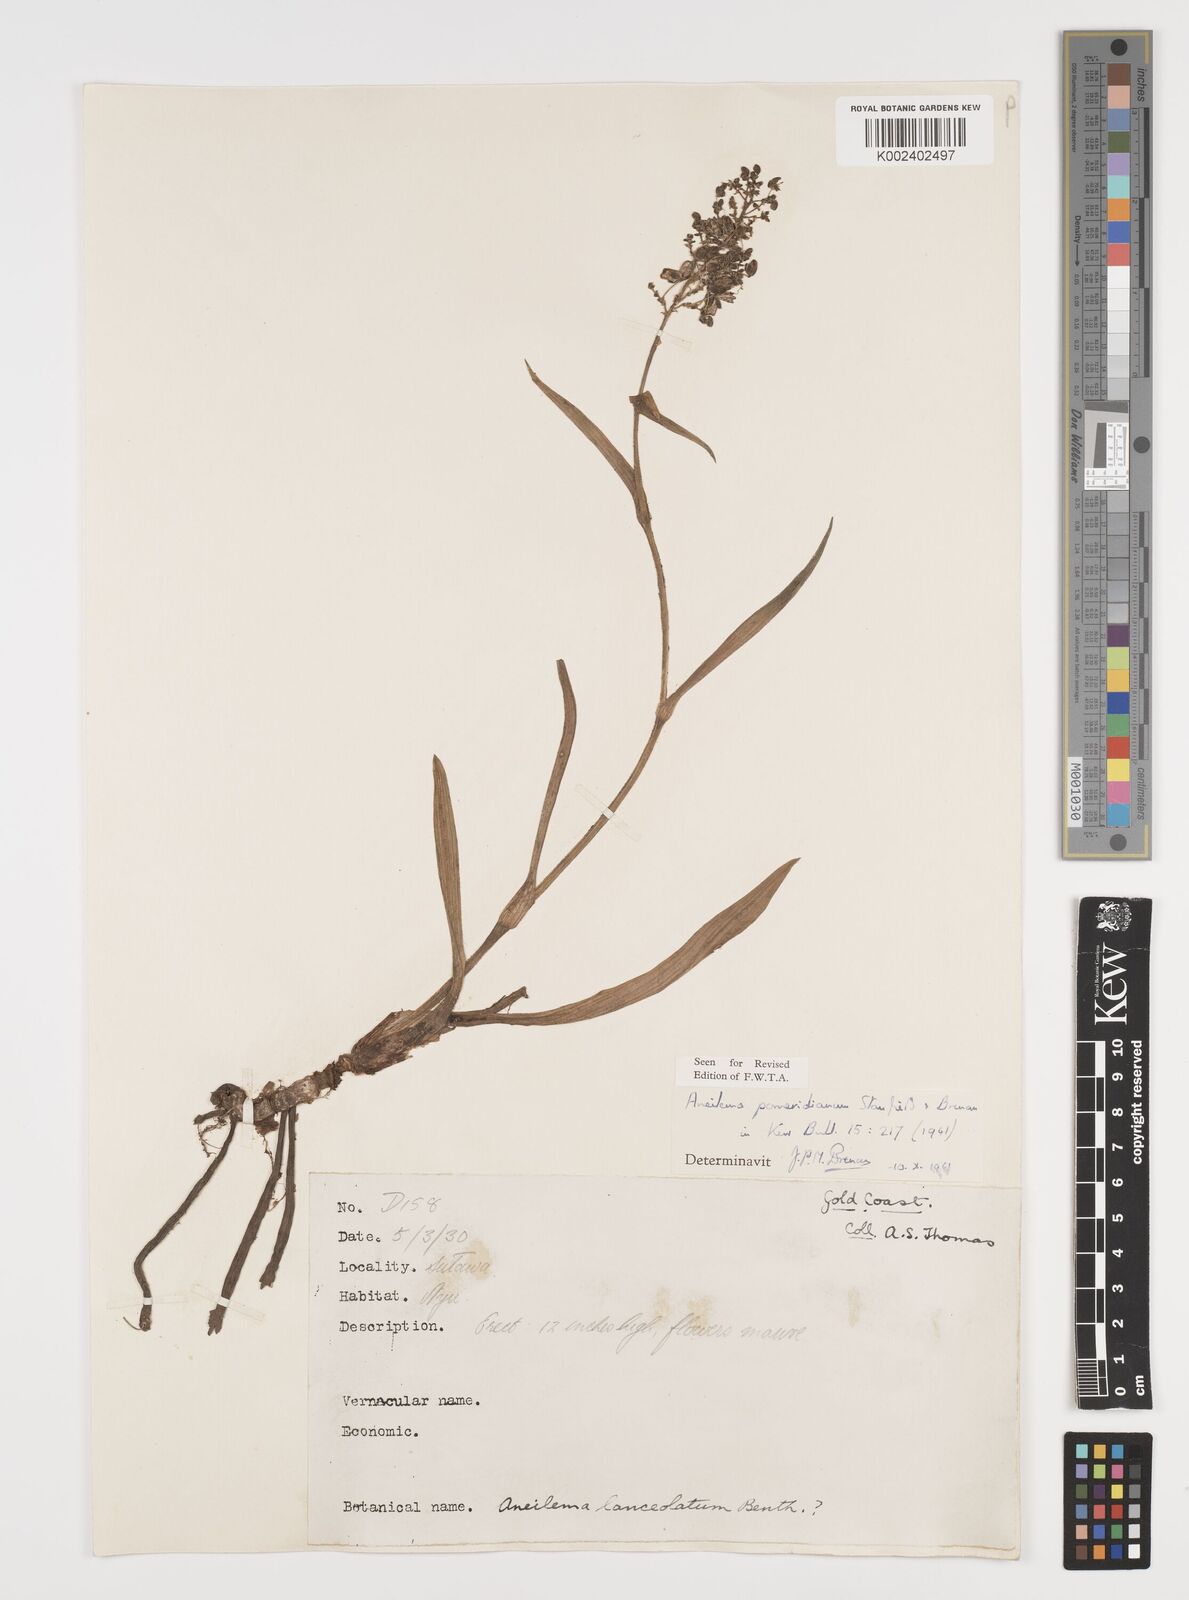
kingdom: Plantae
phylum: Tracheophyta
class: Liliopsida
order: Commelinales
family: Commelinaceae
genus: Aneilema
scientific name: Aneilema pomeridianum
